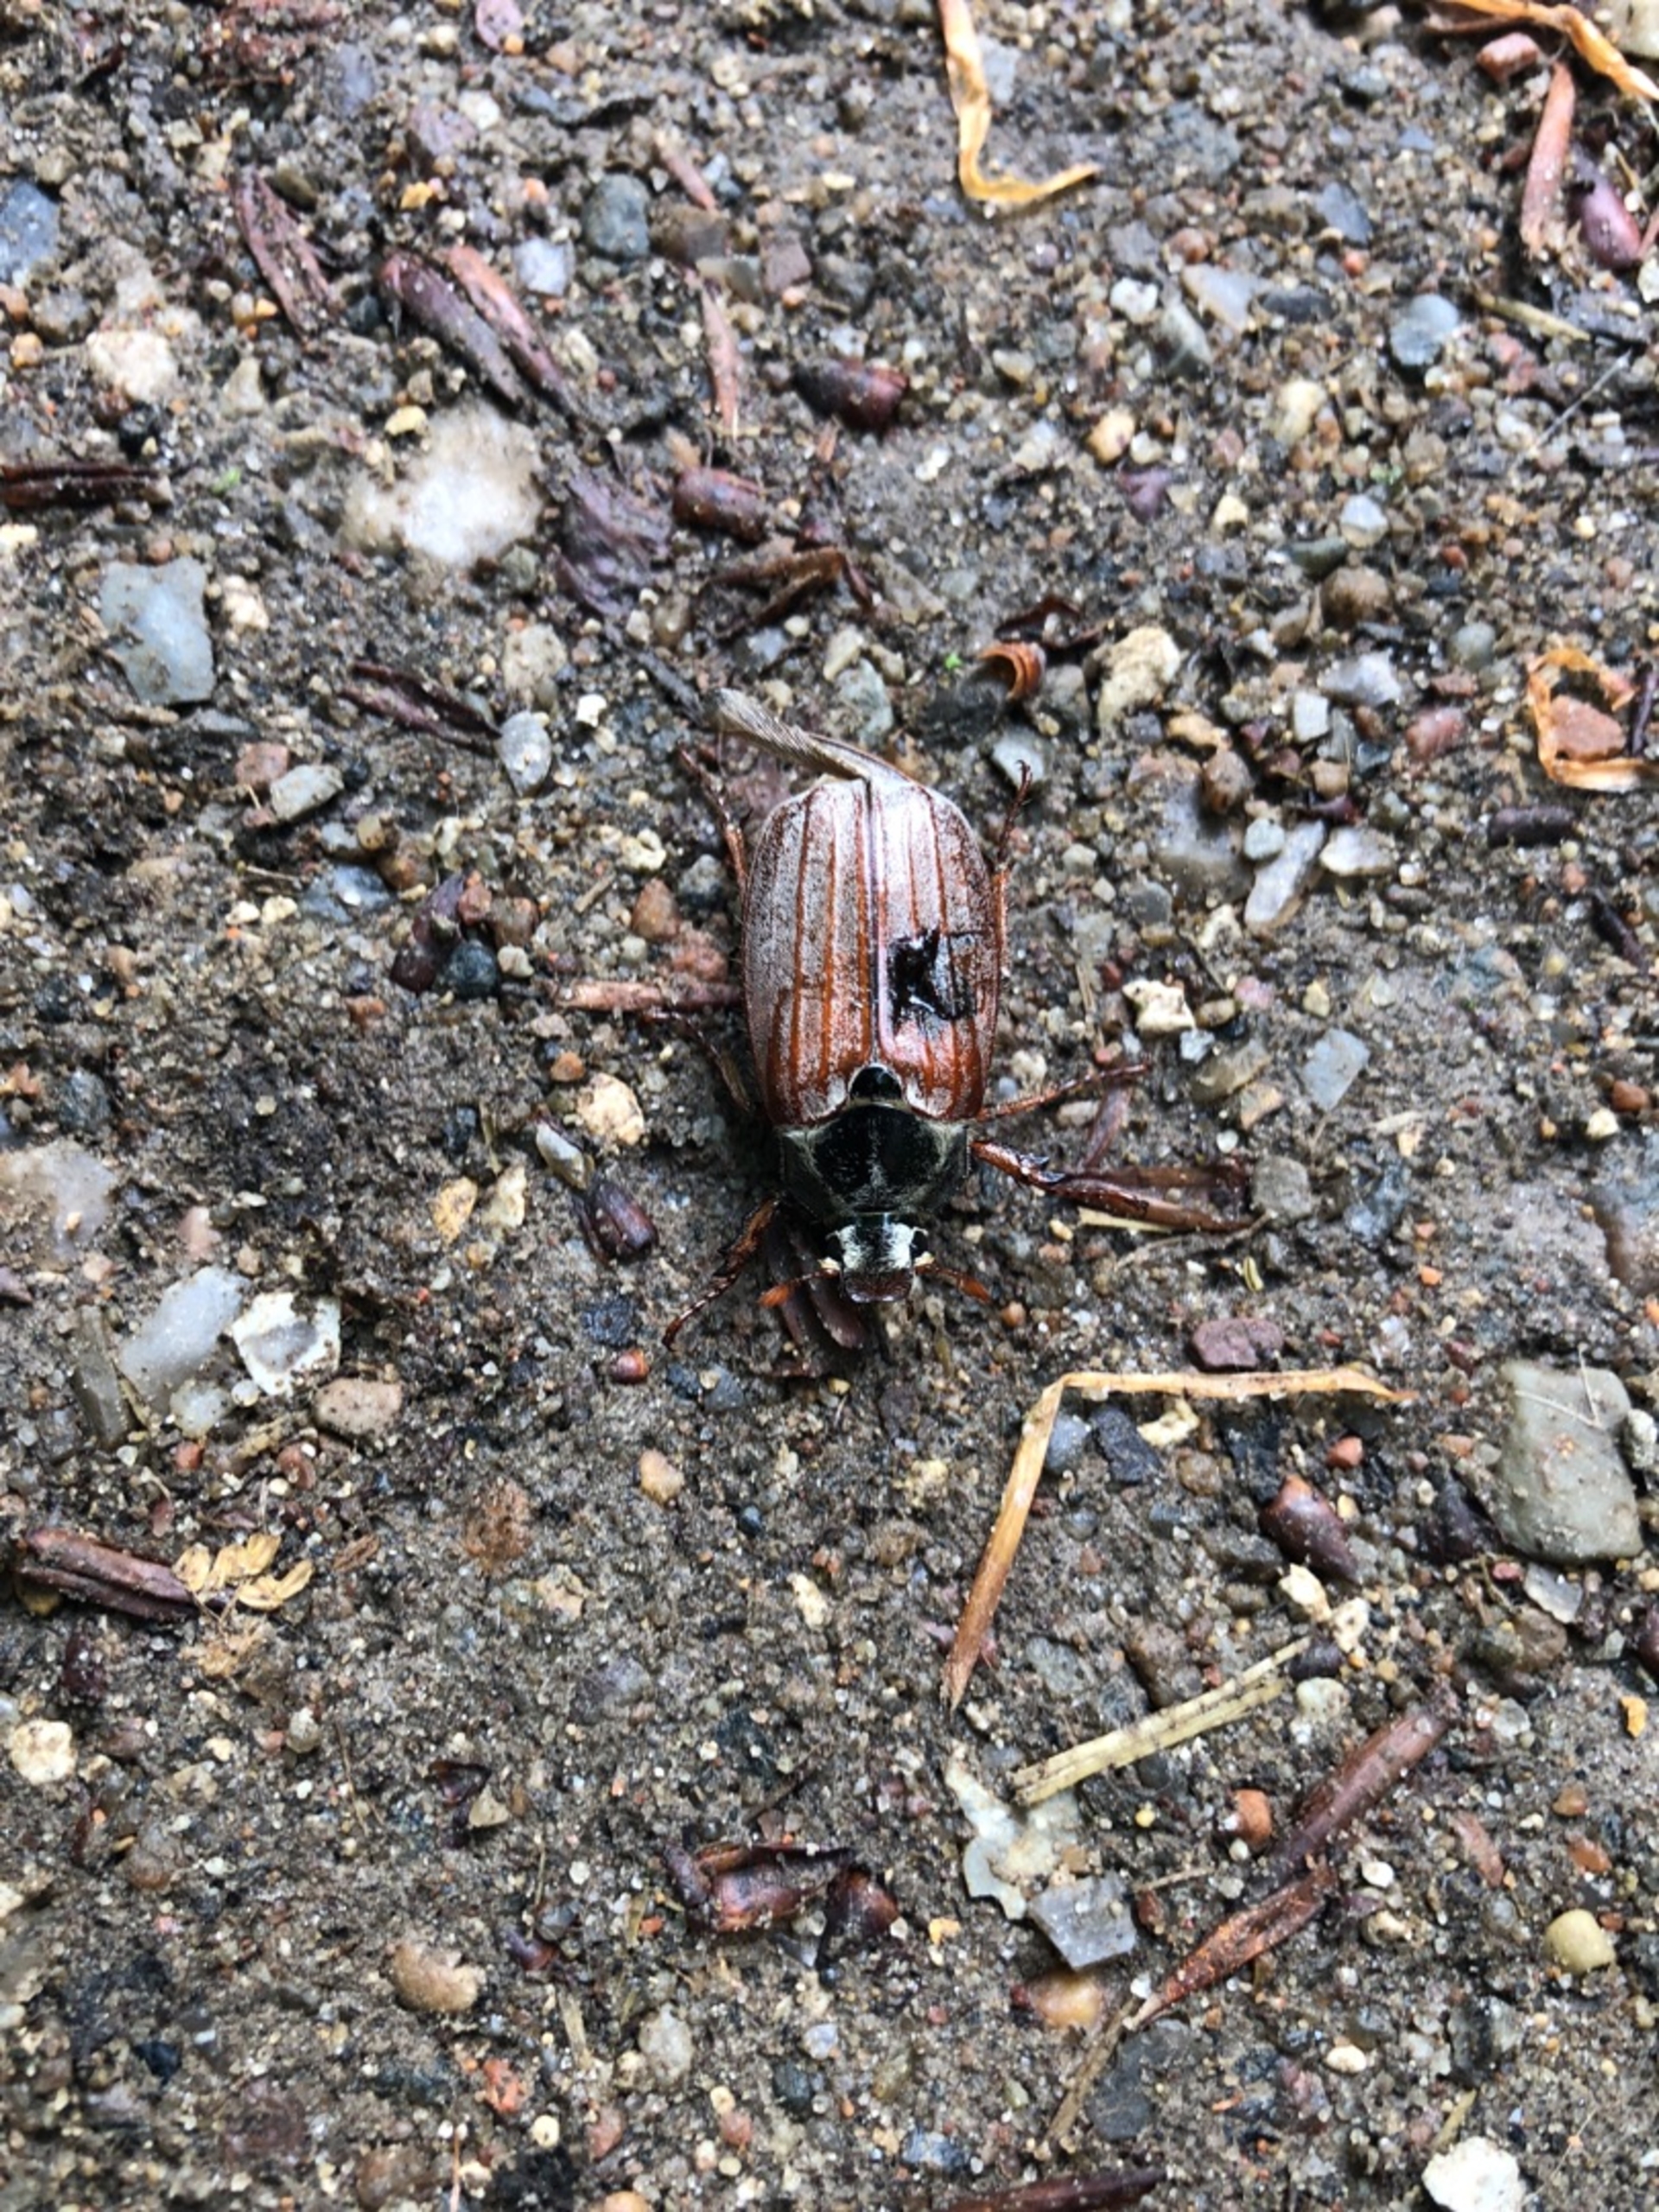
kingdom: Animalia
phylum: Arthropoda
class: Insecta
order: Coleoptera
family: Scarabaeidae
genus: Melolontha
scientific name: Melolontha melolontha
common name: Almindelig oldenborre
